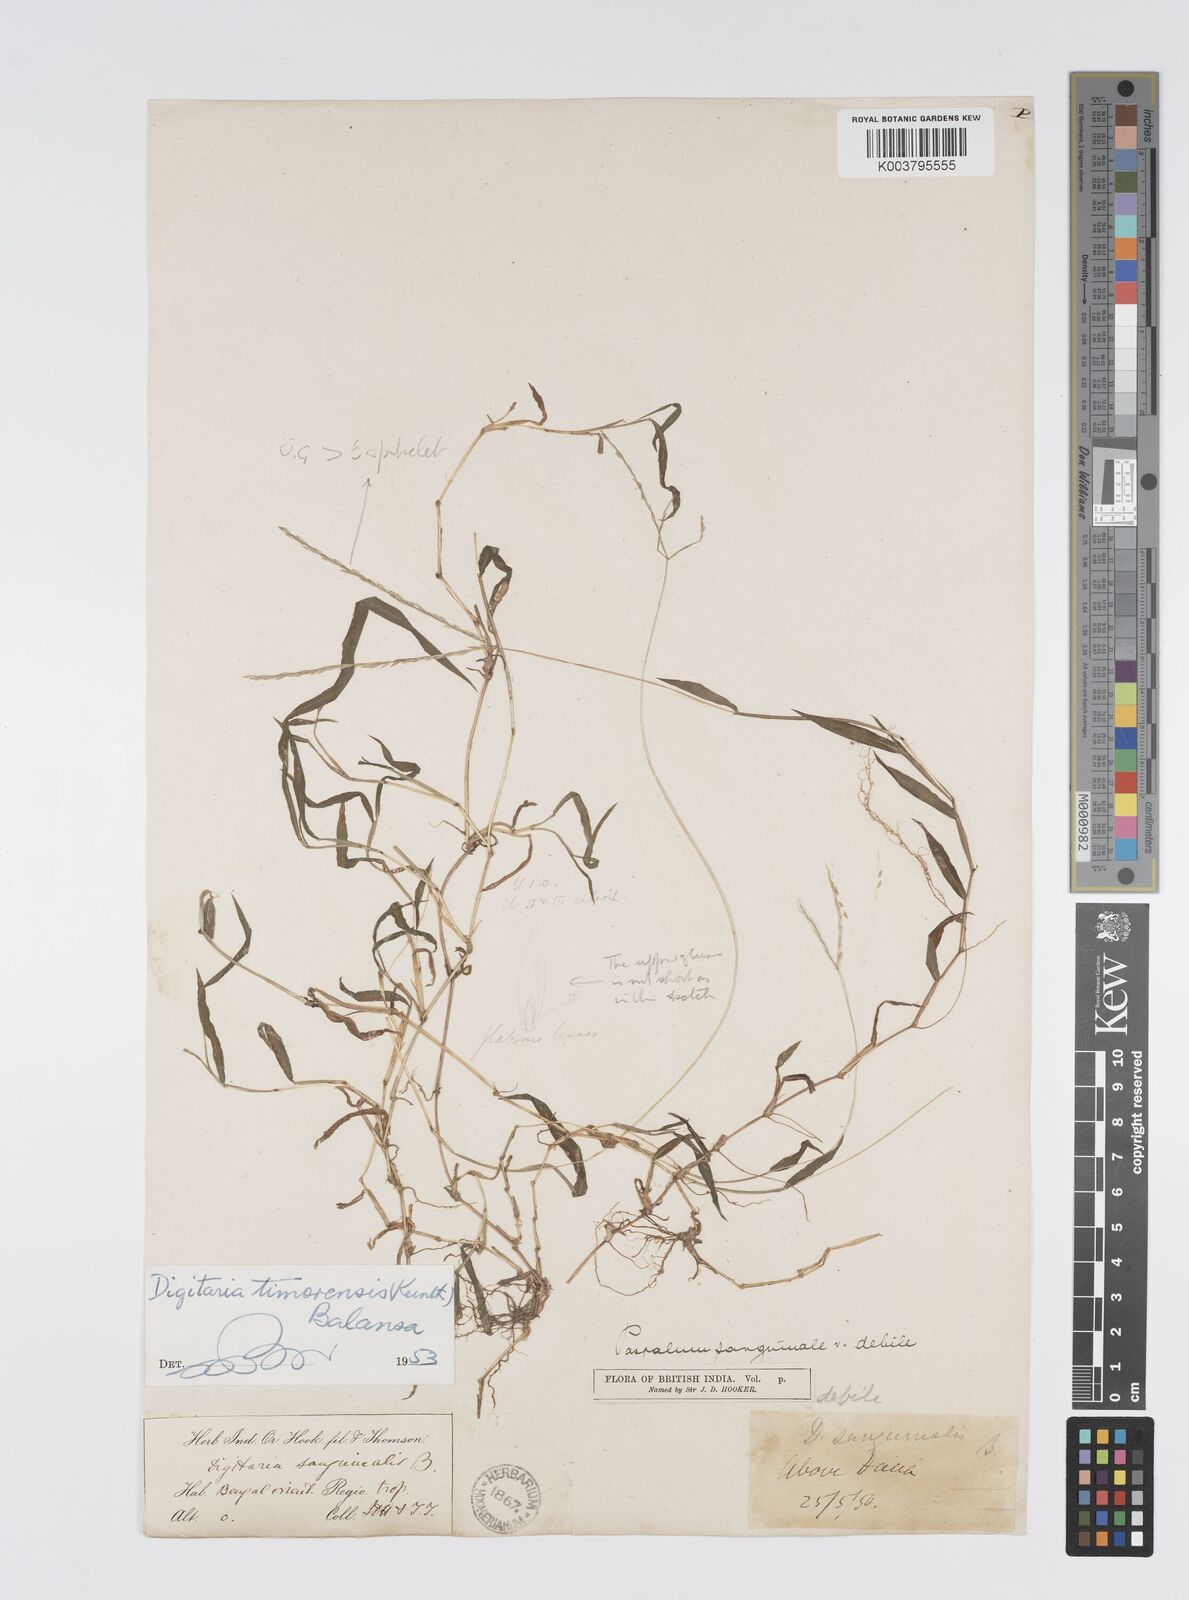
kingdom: Plantae
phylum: Tracheophyta
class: Liliopsida
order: Poales
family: Poaceae
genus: Digitaria
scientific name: Digitaria radicosa
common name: Trailing crabgrass
